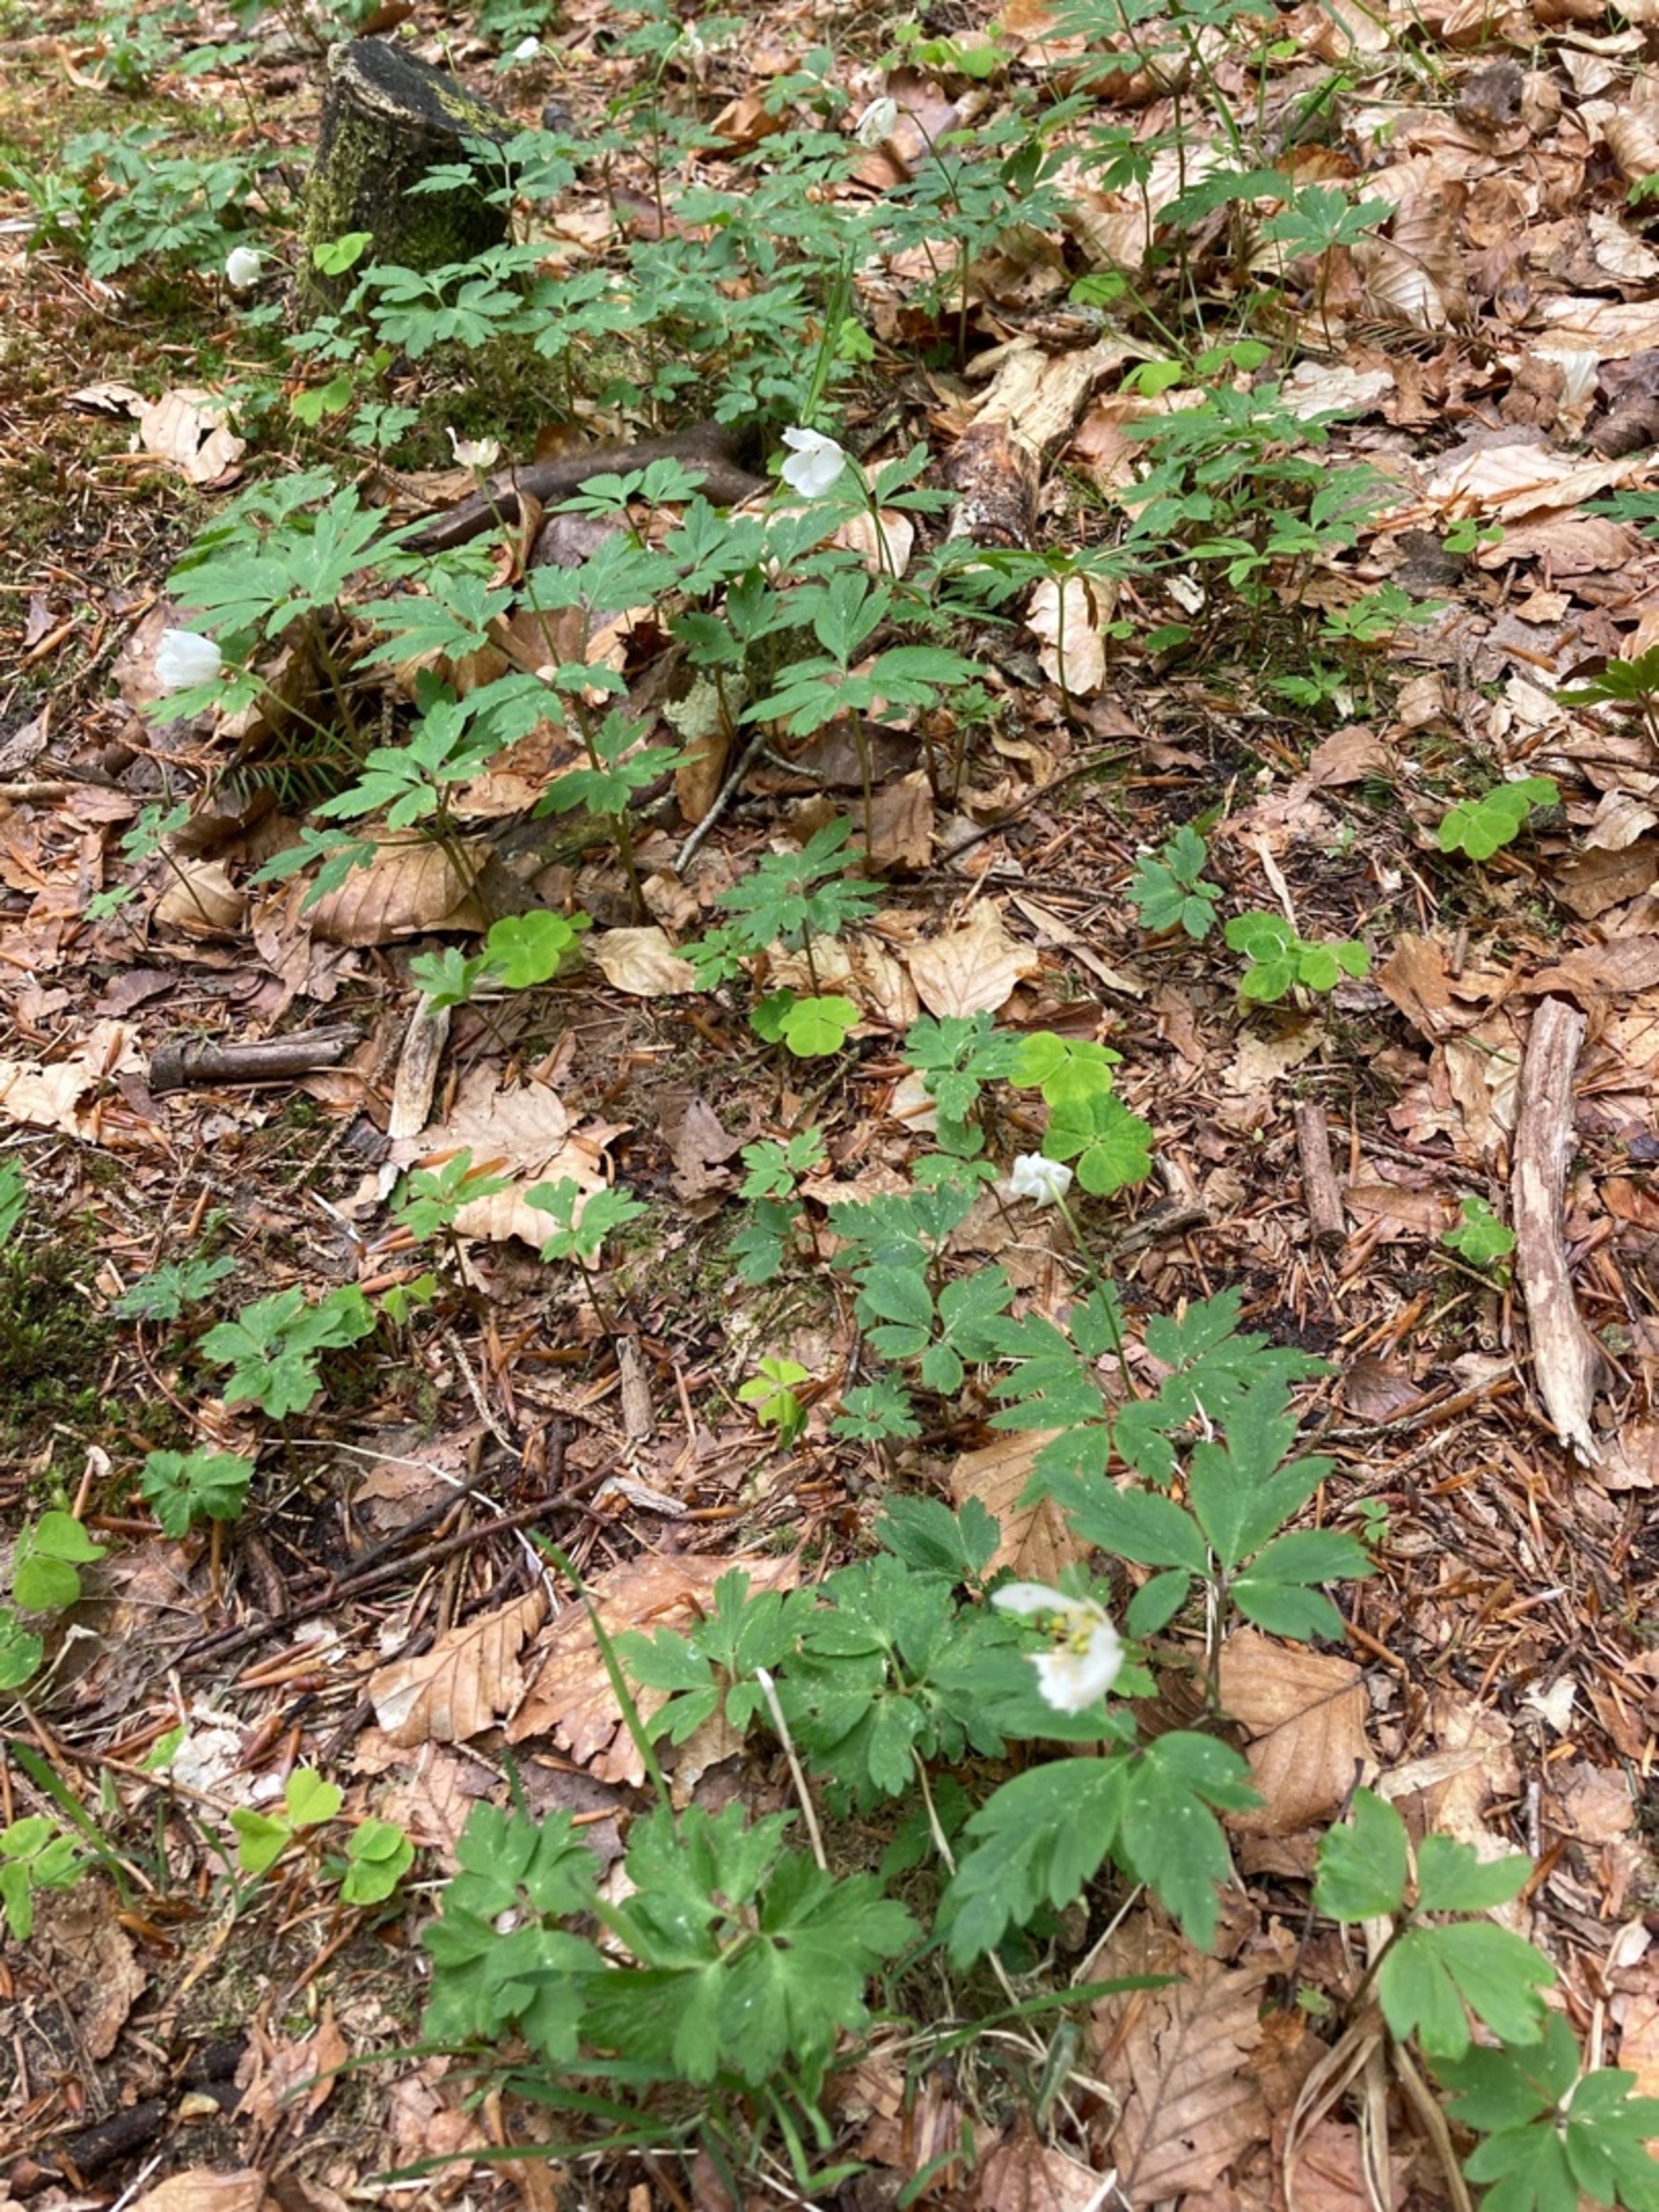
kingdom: Plantae
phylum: Tracheophyta
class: Magnoliopsida
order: Ranunculales
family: Ranunculaceae
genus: Anemone
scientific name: Anemone nemorosa
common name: Hvid anemone
